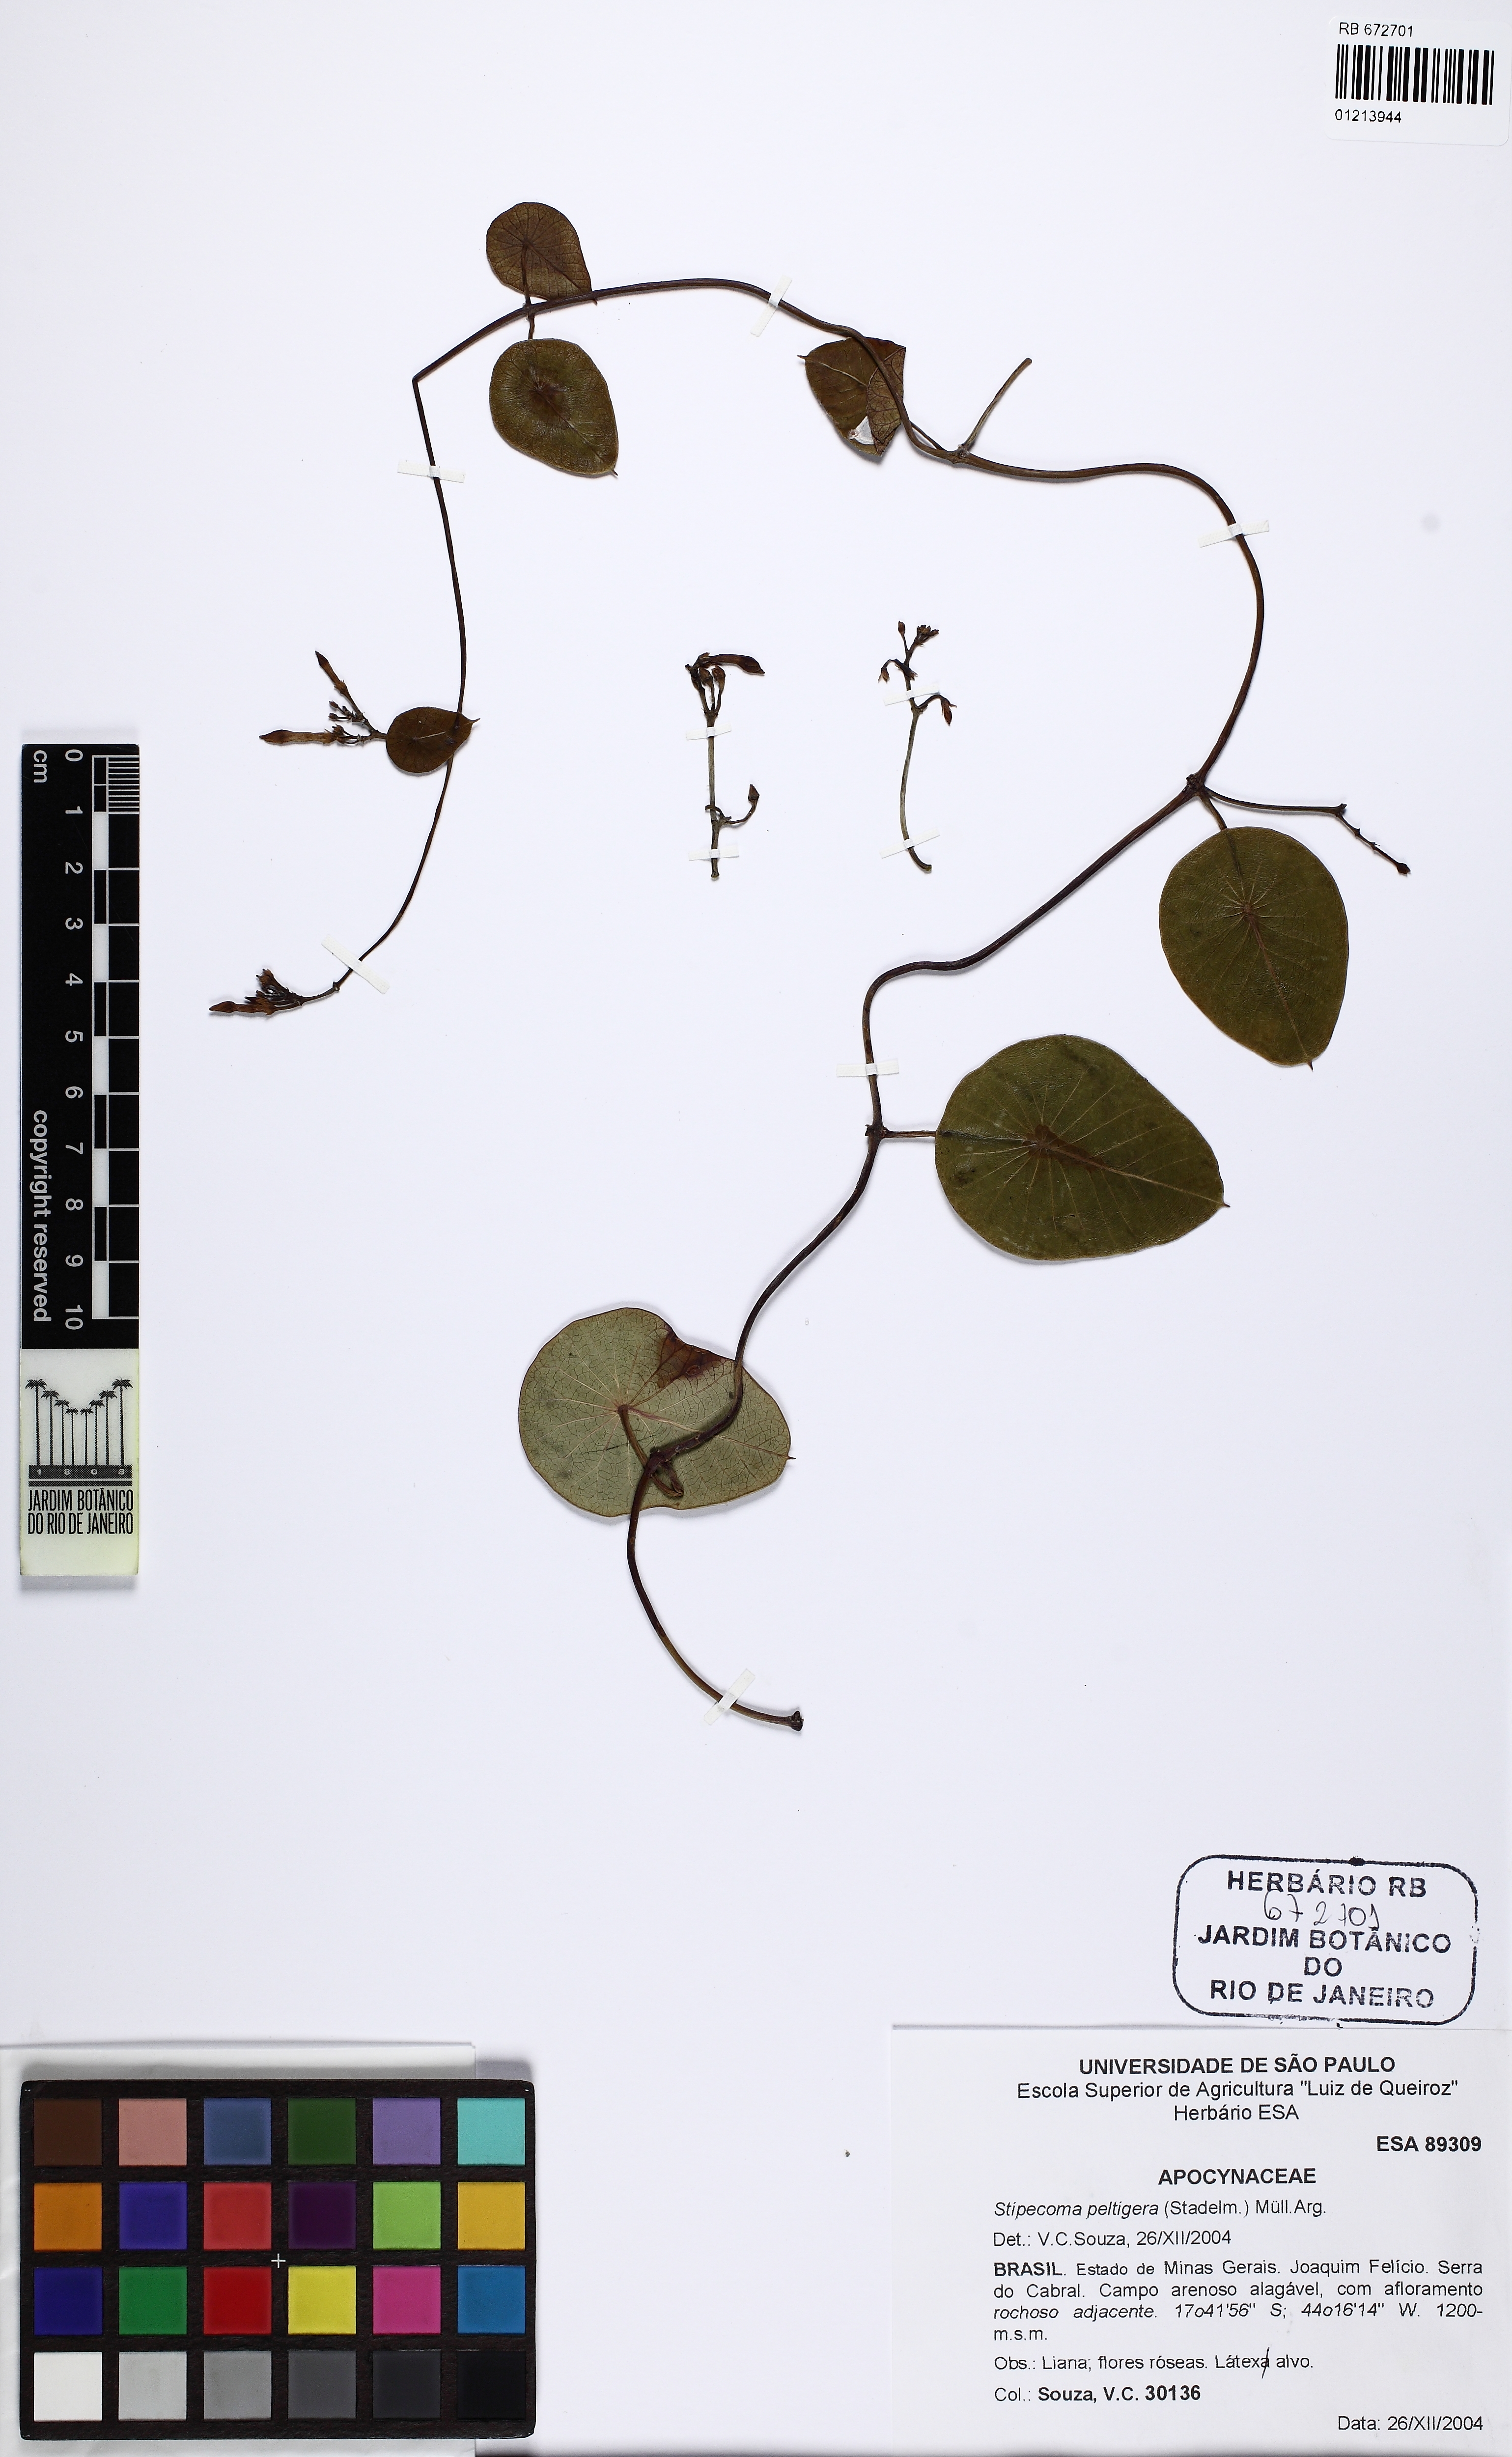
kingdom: Plantae
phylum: Tracheophyta
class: Magnoliopsida
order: Gentianales
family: Apocynaceae
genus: Stipecoma
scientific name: Stipecoma peltigera
